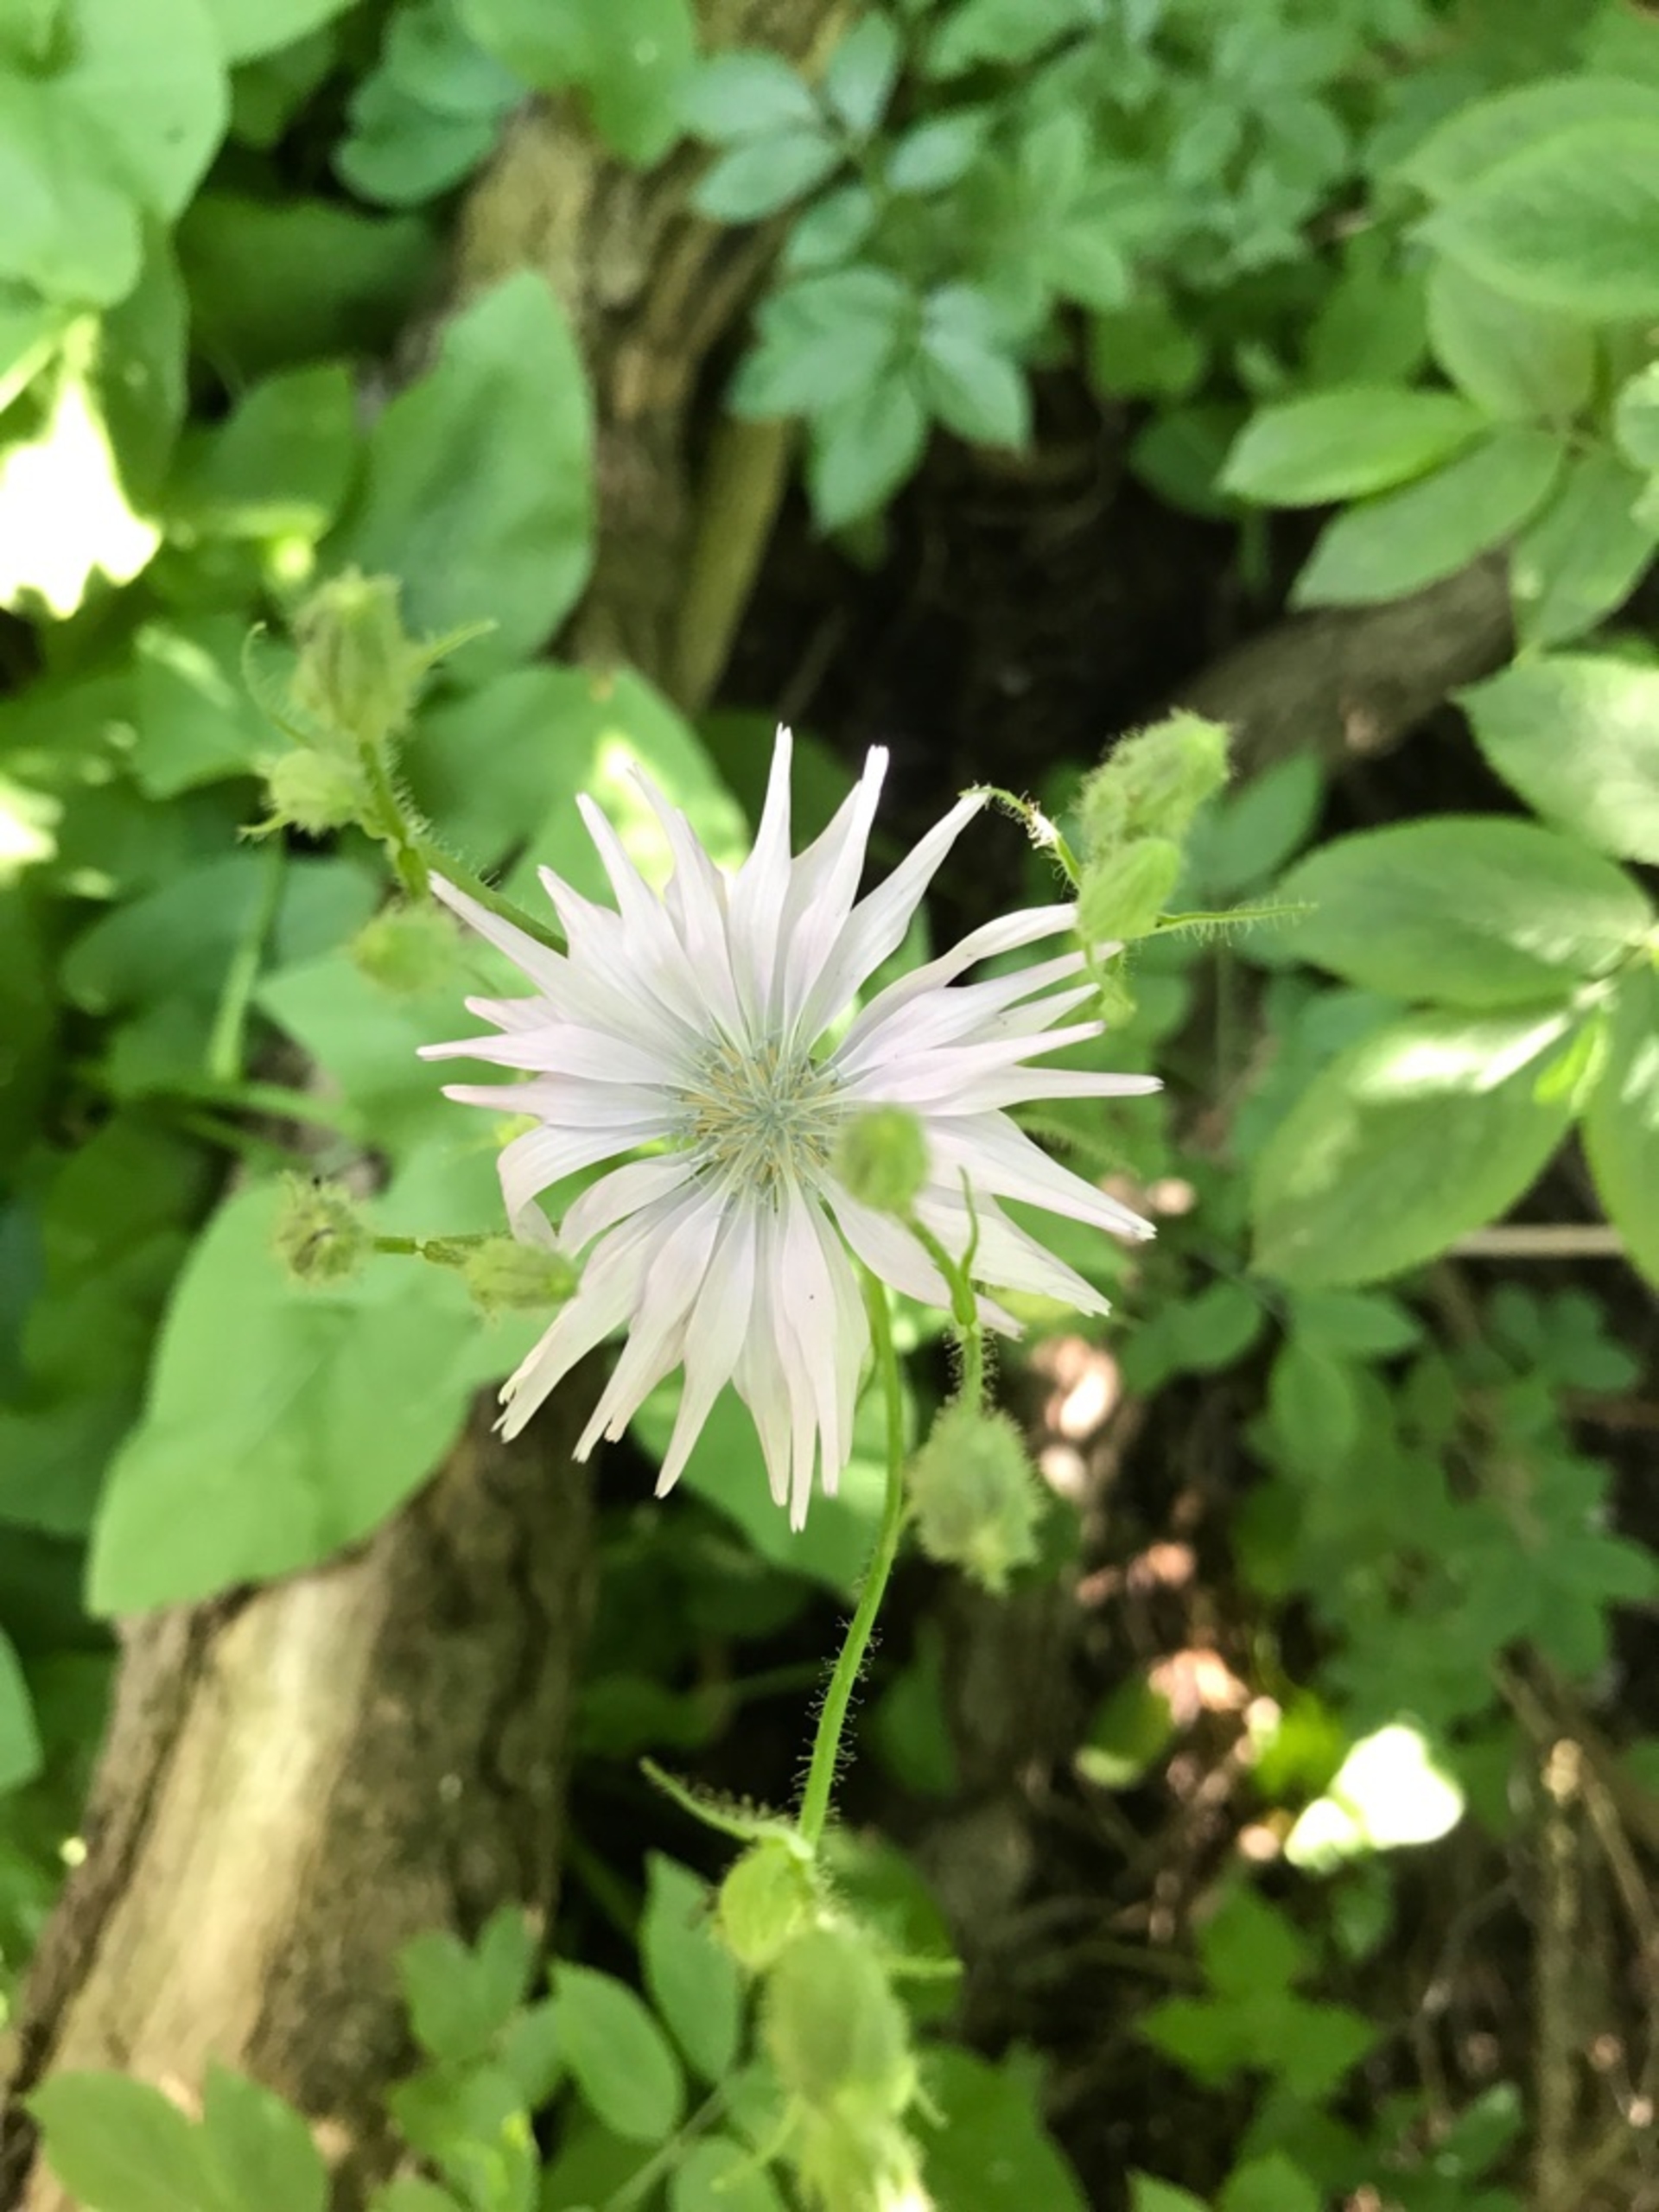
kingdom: Plantae
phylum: Tracheophyta
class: Magnoliopsida
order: Asterales
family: Asteraceae
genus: Lactuca
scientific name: Lactuca macrophylla
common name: Kæmpe-salat
